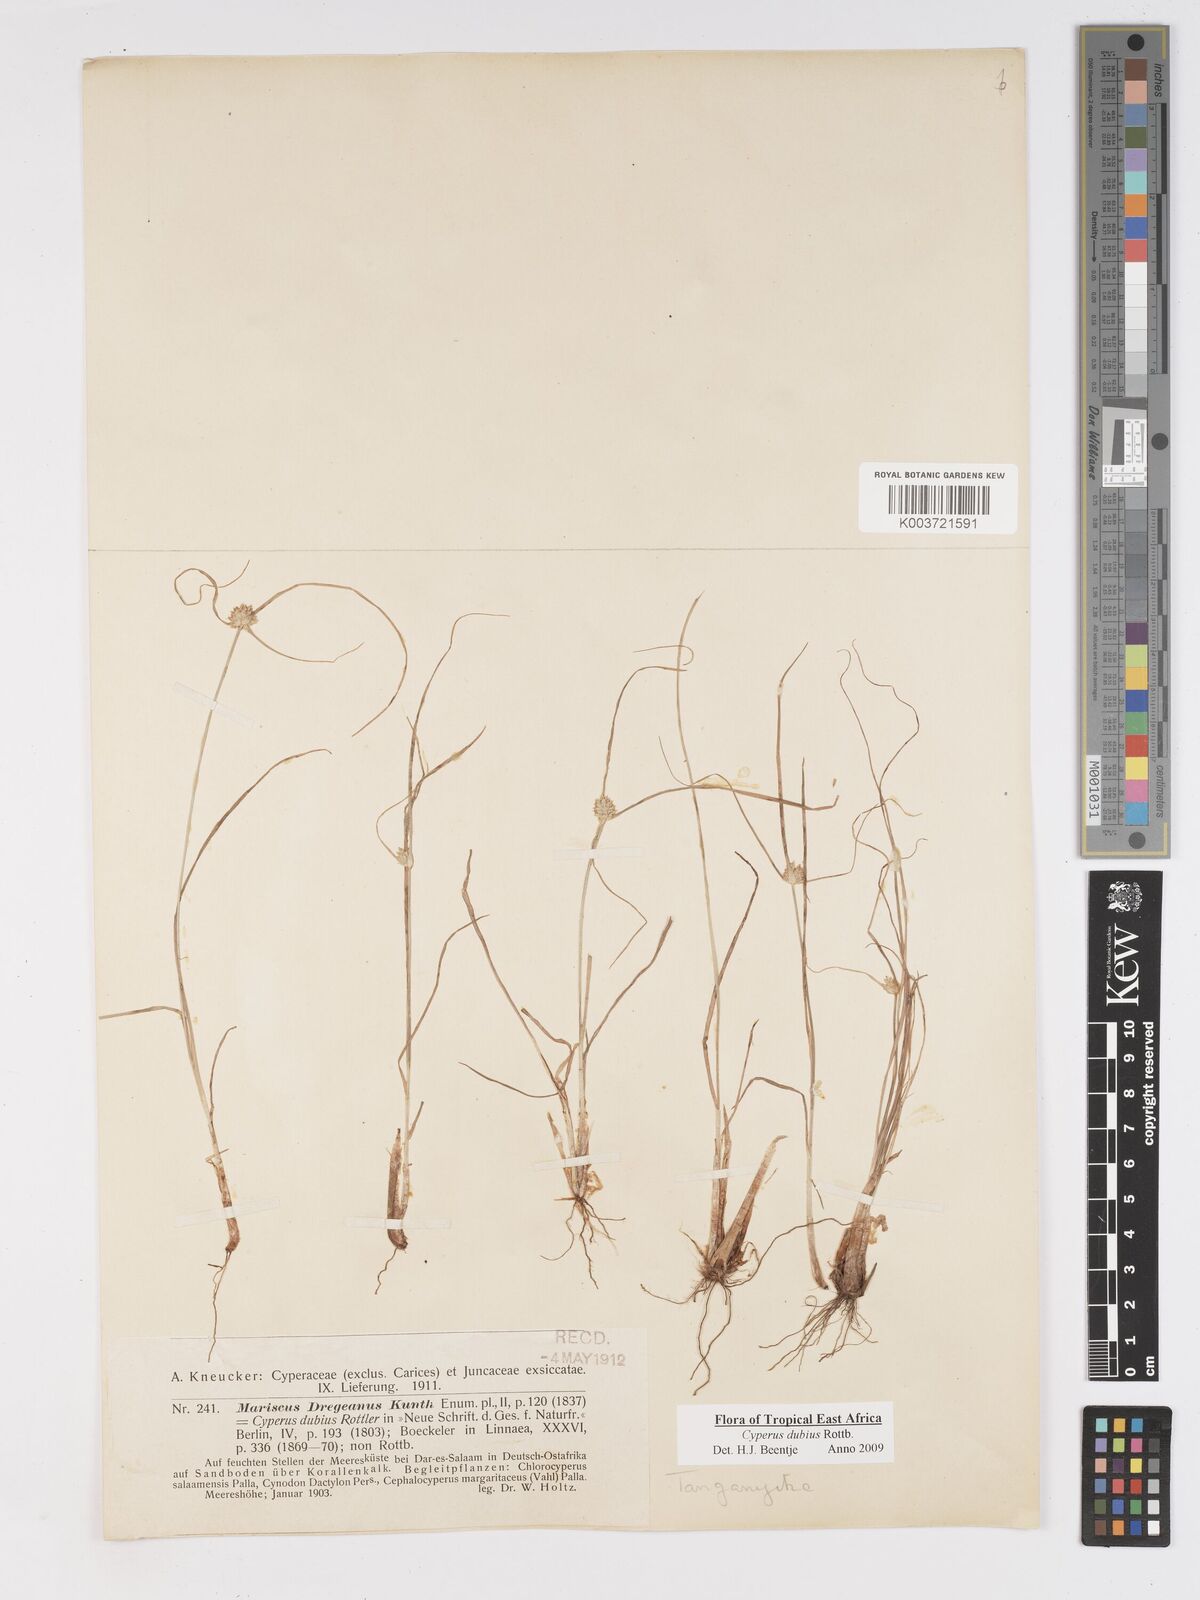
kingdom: Plantae
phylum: Tracheophyta
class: Liliopsida
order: Poales
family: Cyperaceae
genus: Cyperus
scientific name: Cyperus dubius
